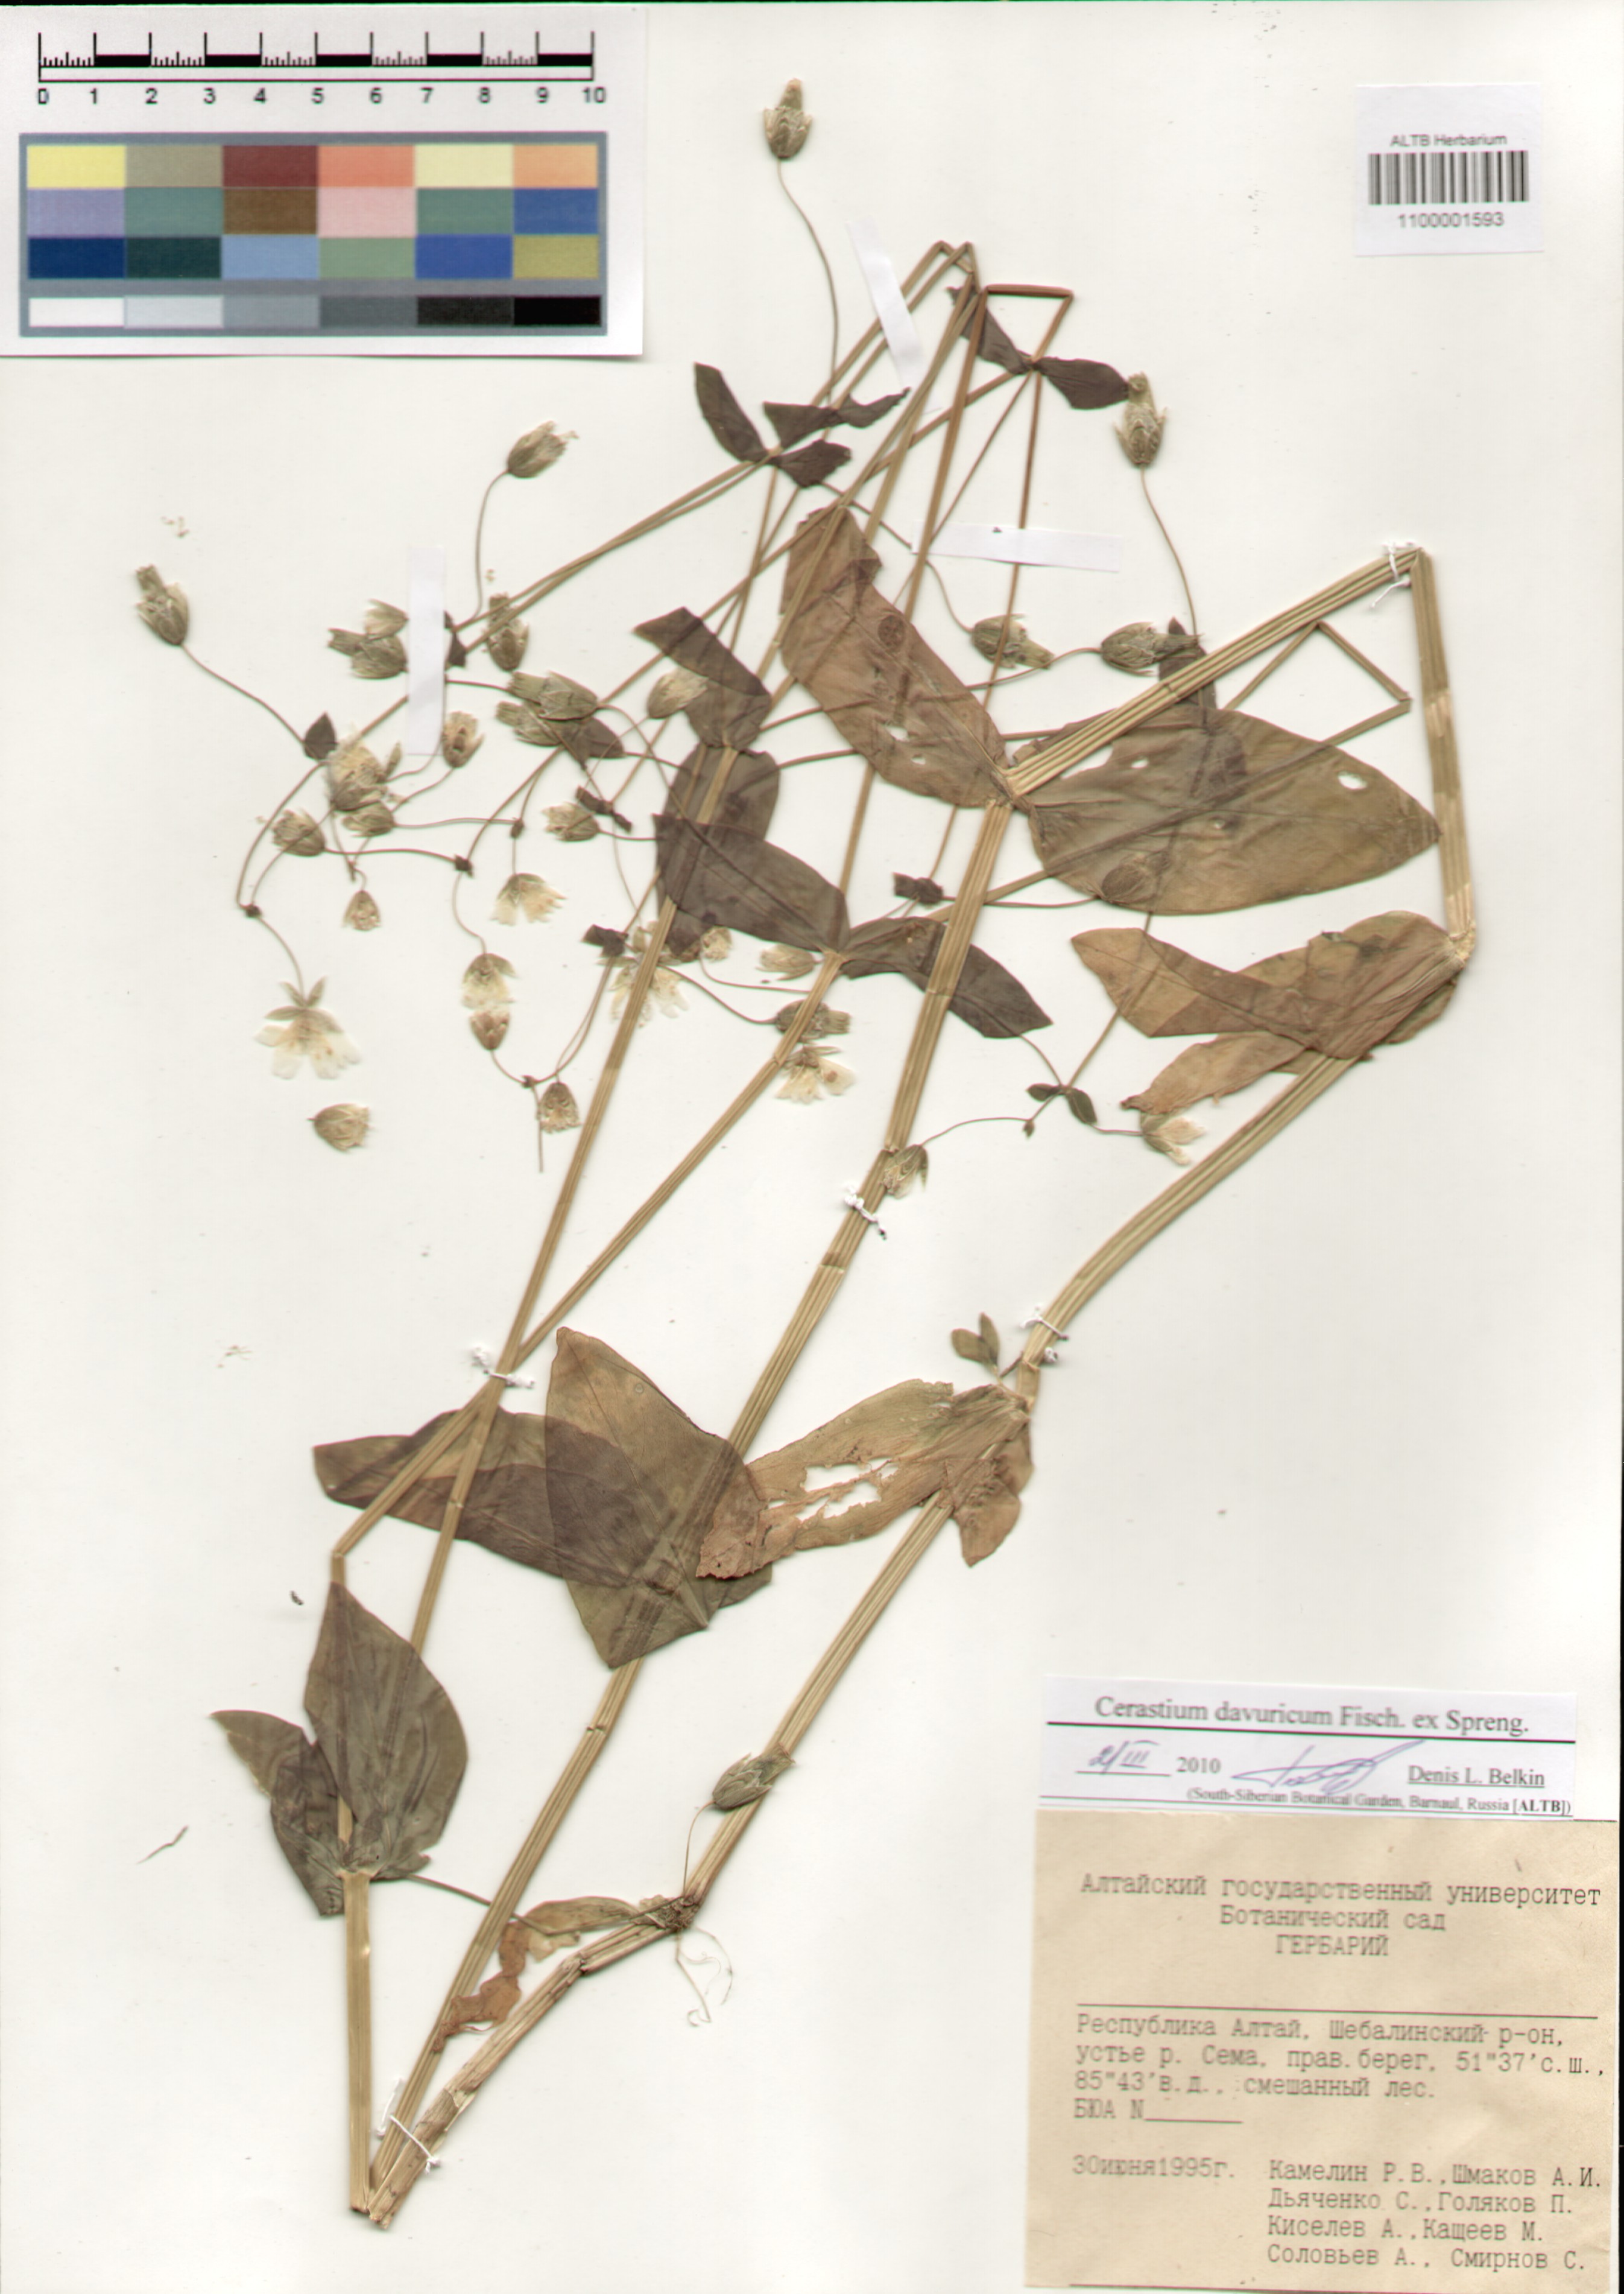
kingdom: Plantae
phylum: Tracheophyta
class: Magnoliopsida
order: Caryophyllales
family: Caryophyllaceae
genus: Dichodon
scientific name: Dichodon davuricum
